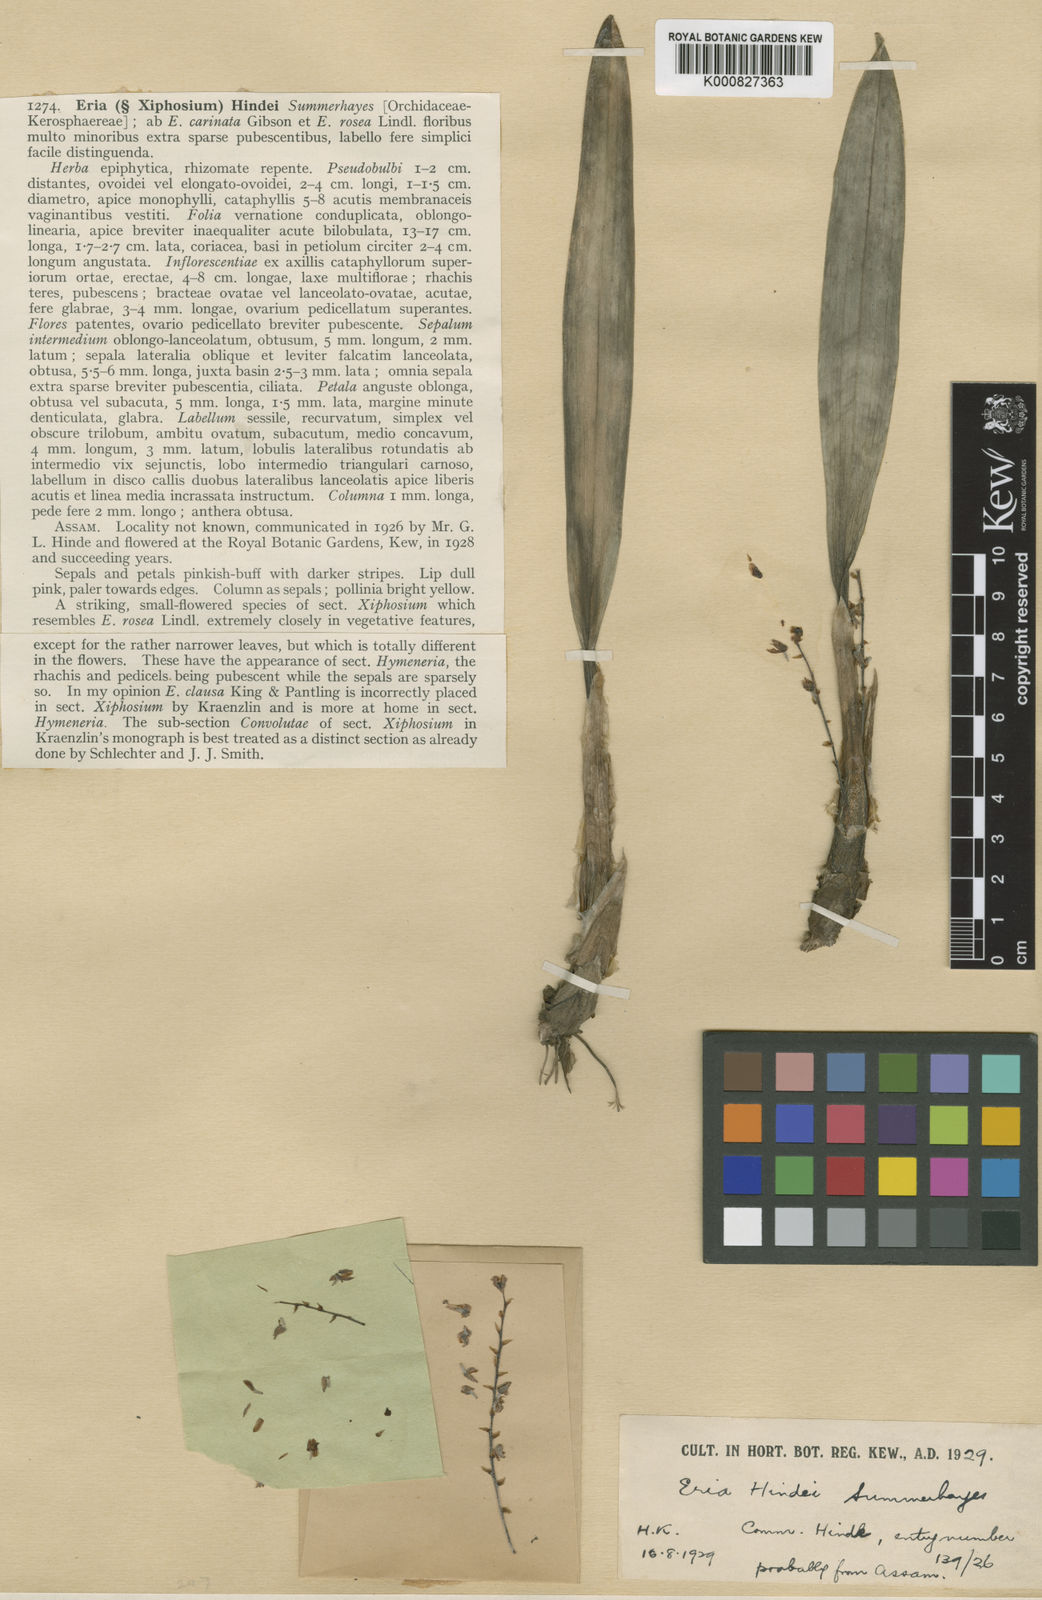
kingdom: Plantae
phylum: Tracheophyta
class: Liliopsida
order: Asparagales
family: Orchidaceae
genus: Bryobium
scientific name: Bryobium pudicum
